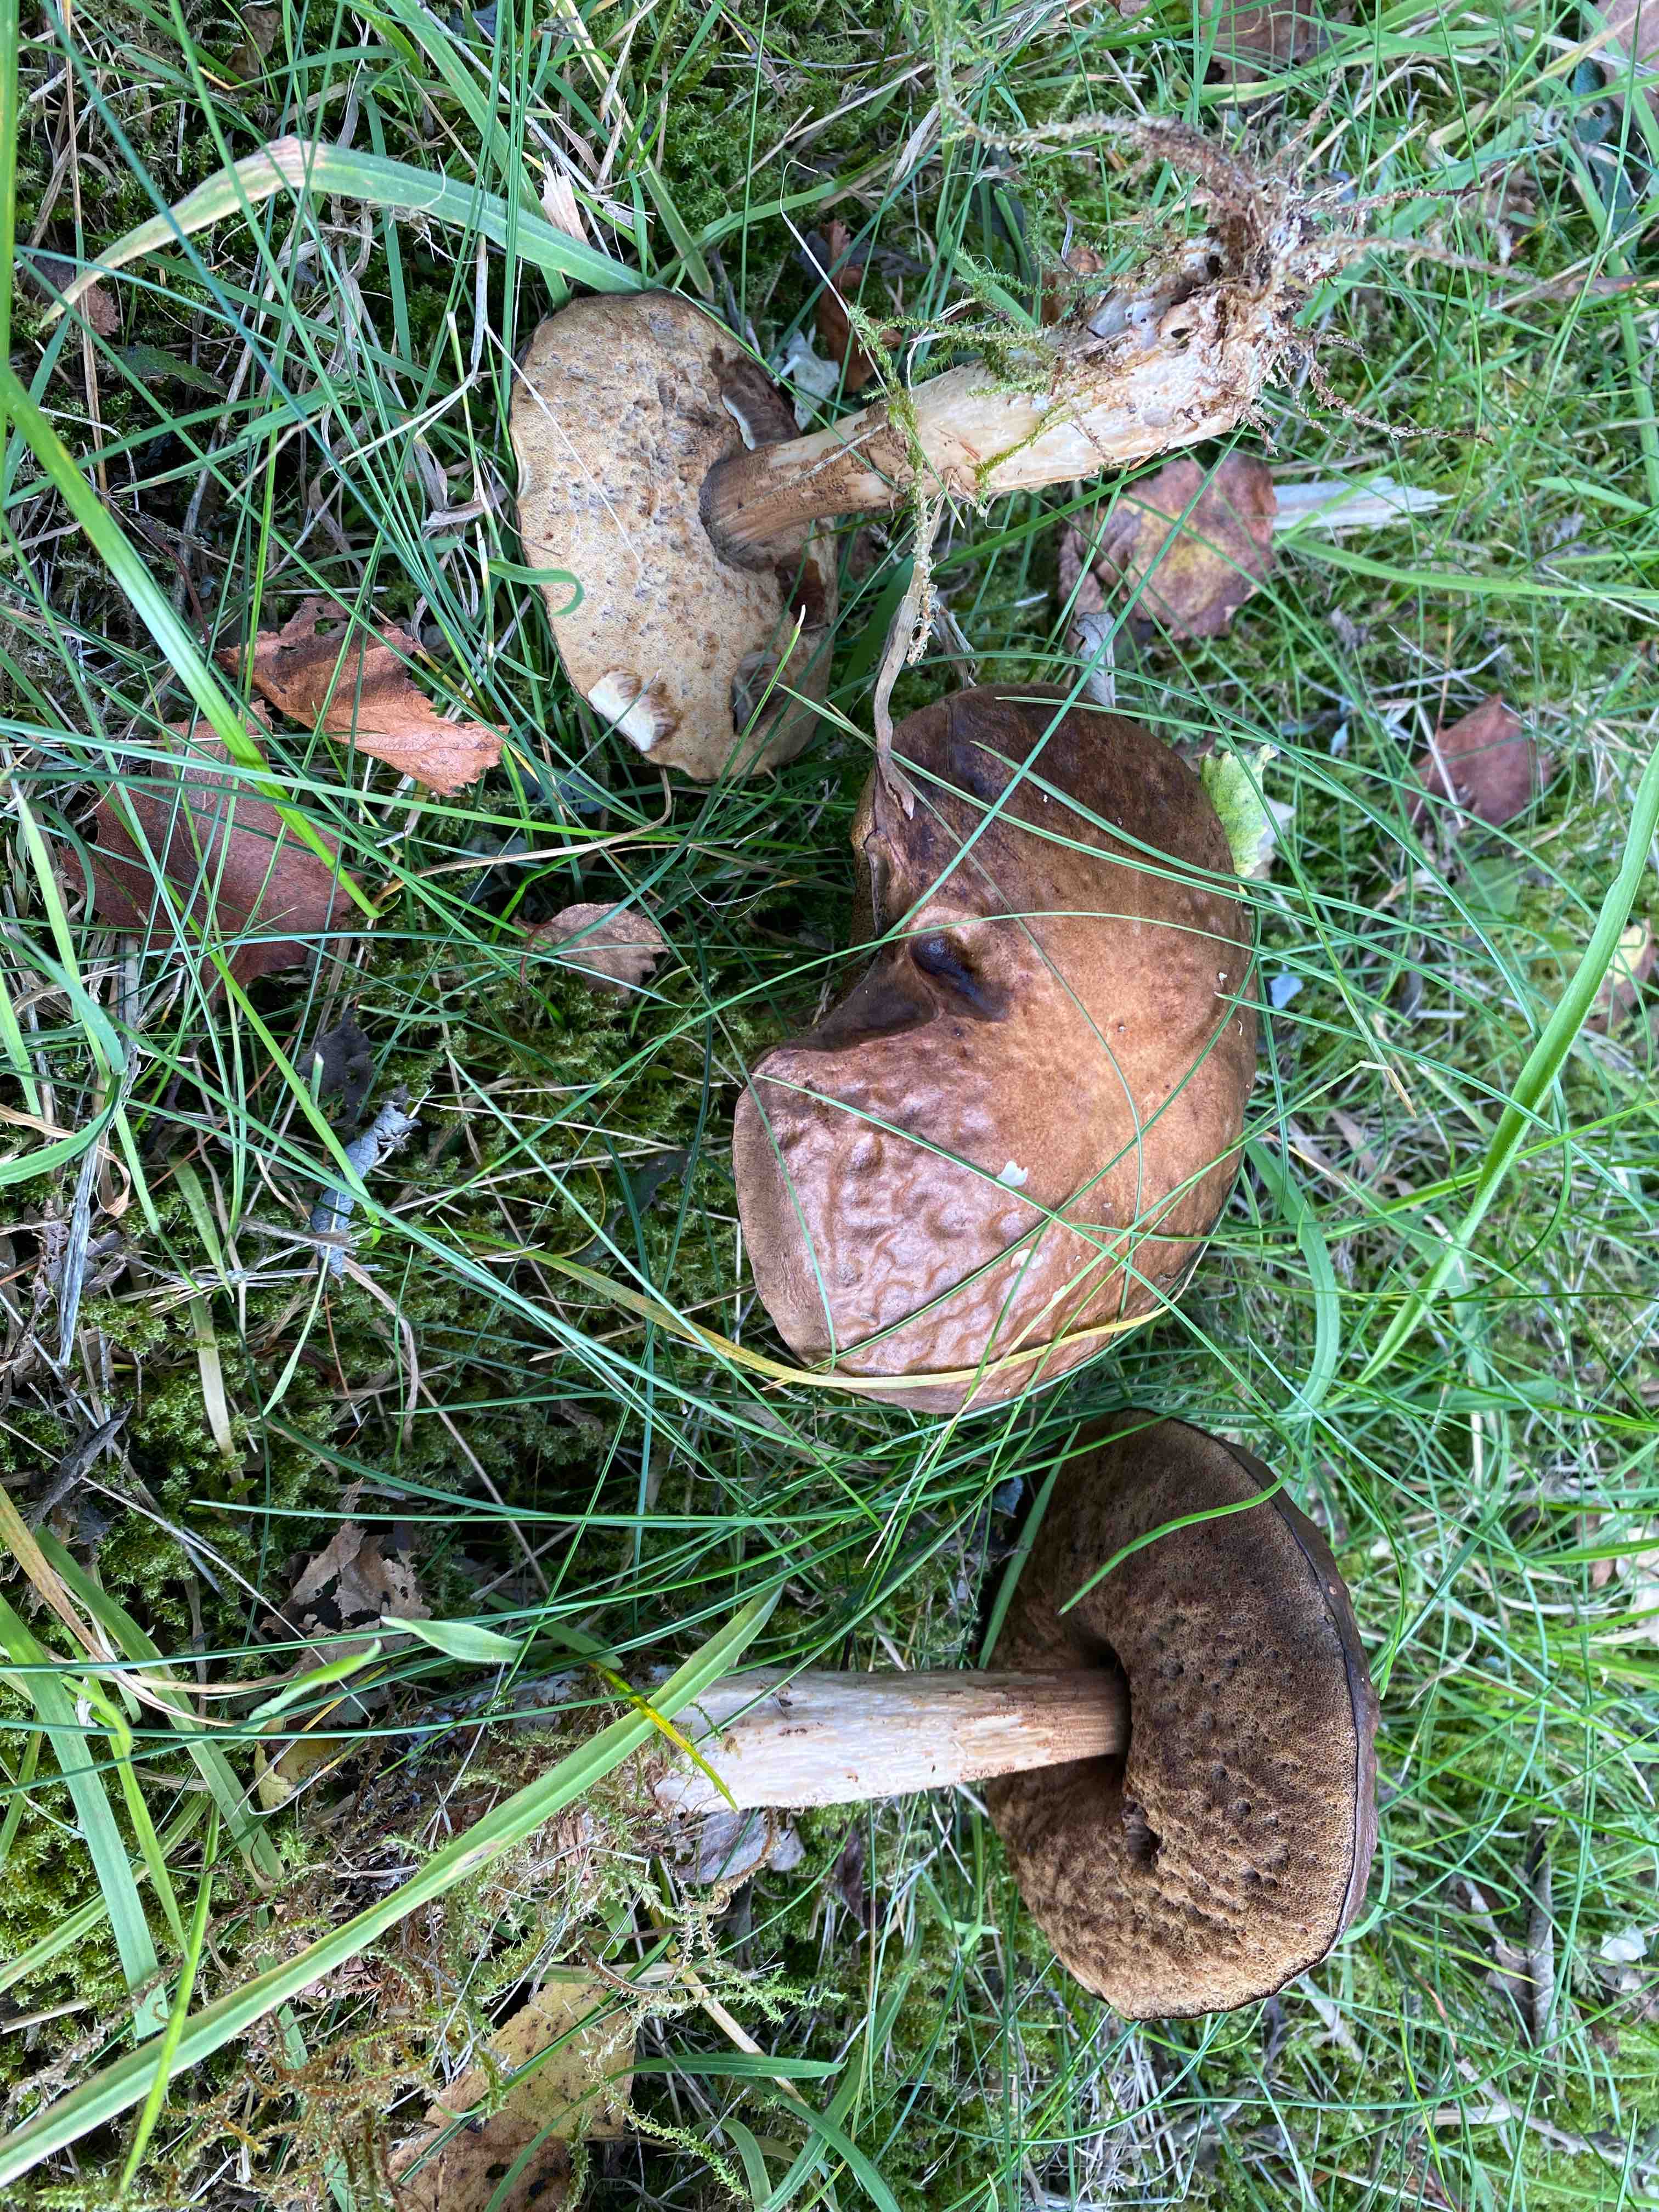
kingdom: Fungi
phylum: Basidiomycota
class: Agaricomycetes
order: Boletales
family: Boletaceae
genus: Leccinum
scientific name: Leccinum cyaneobasileucum
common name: almindelig skælrørhat
